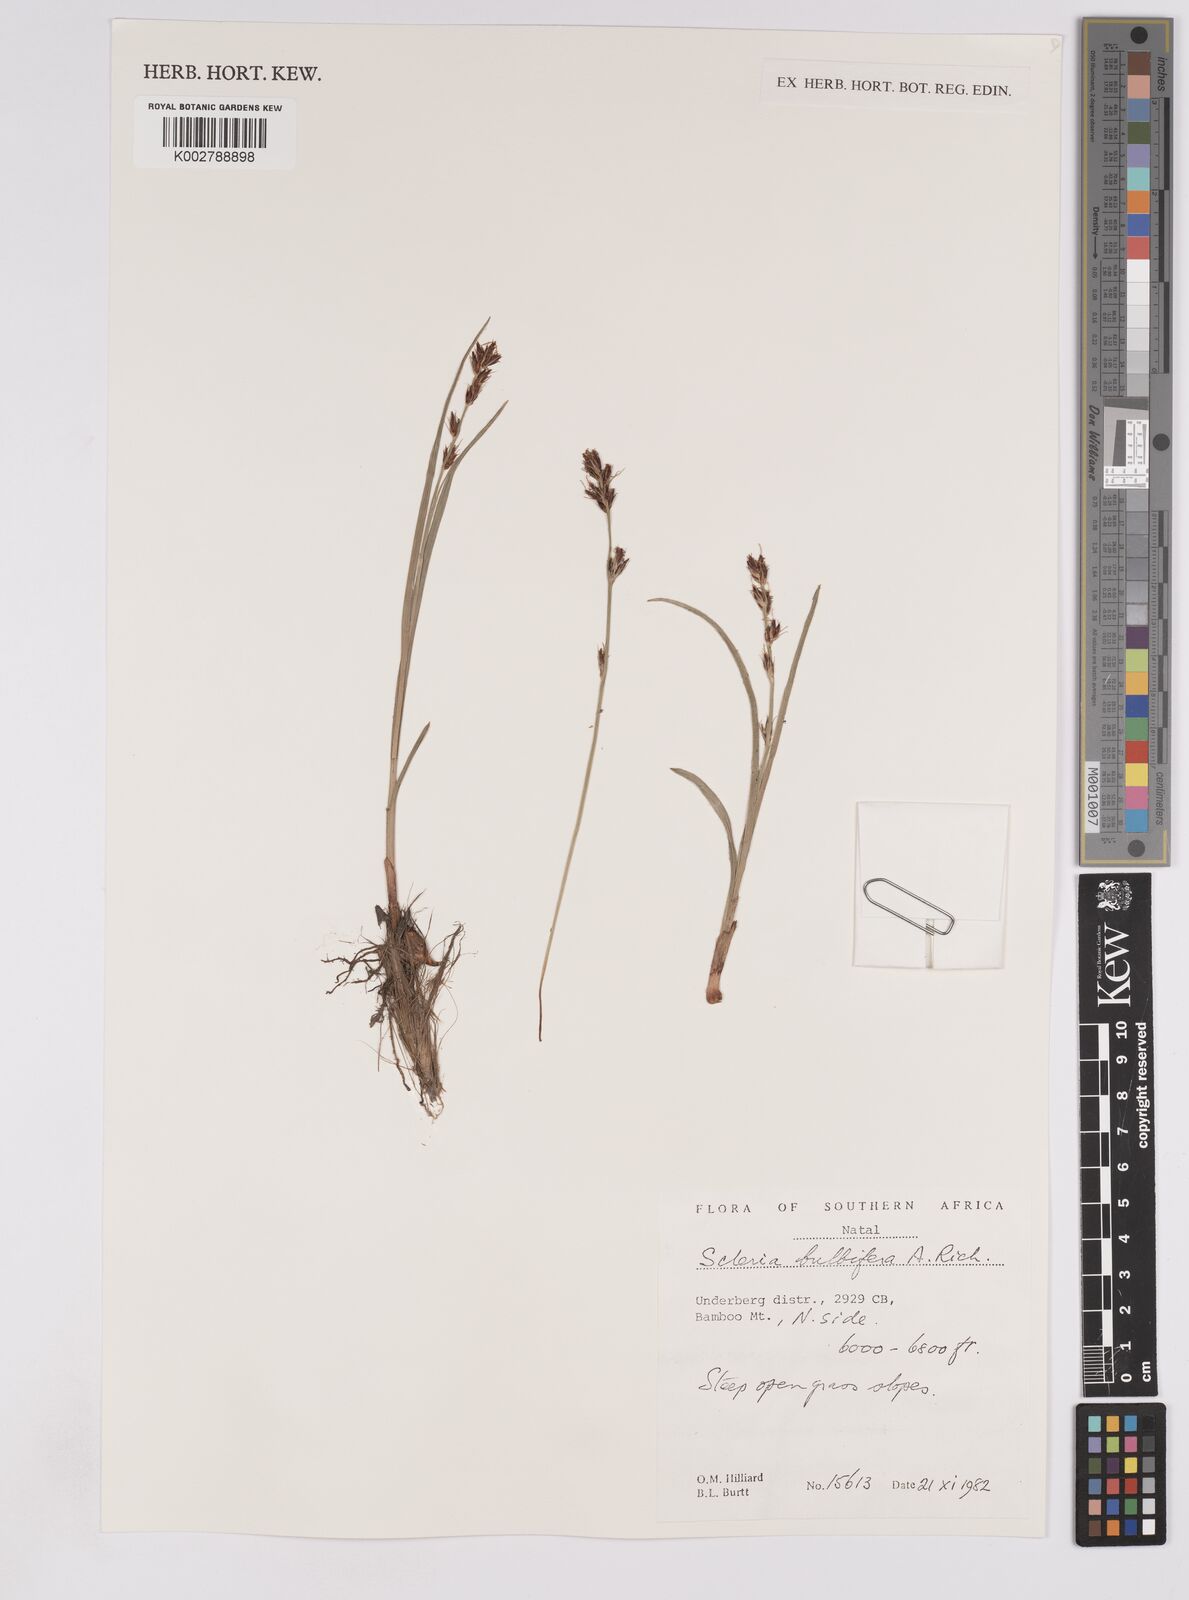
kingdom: Plantae
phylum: Tracheophyta
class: Liliopsida
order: Poales
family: Cyperaceae
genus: Scleria
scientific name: Scleria bulbifera
